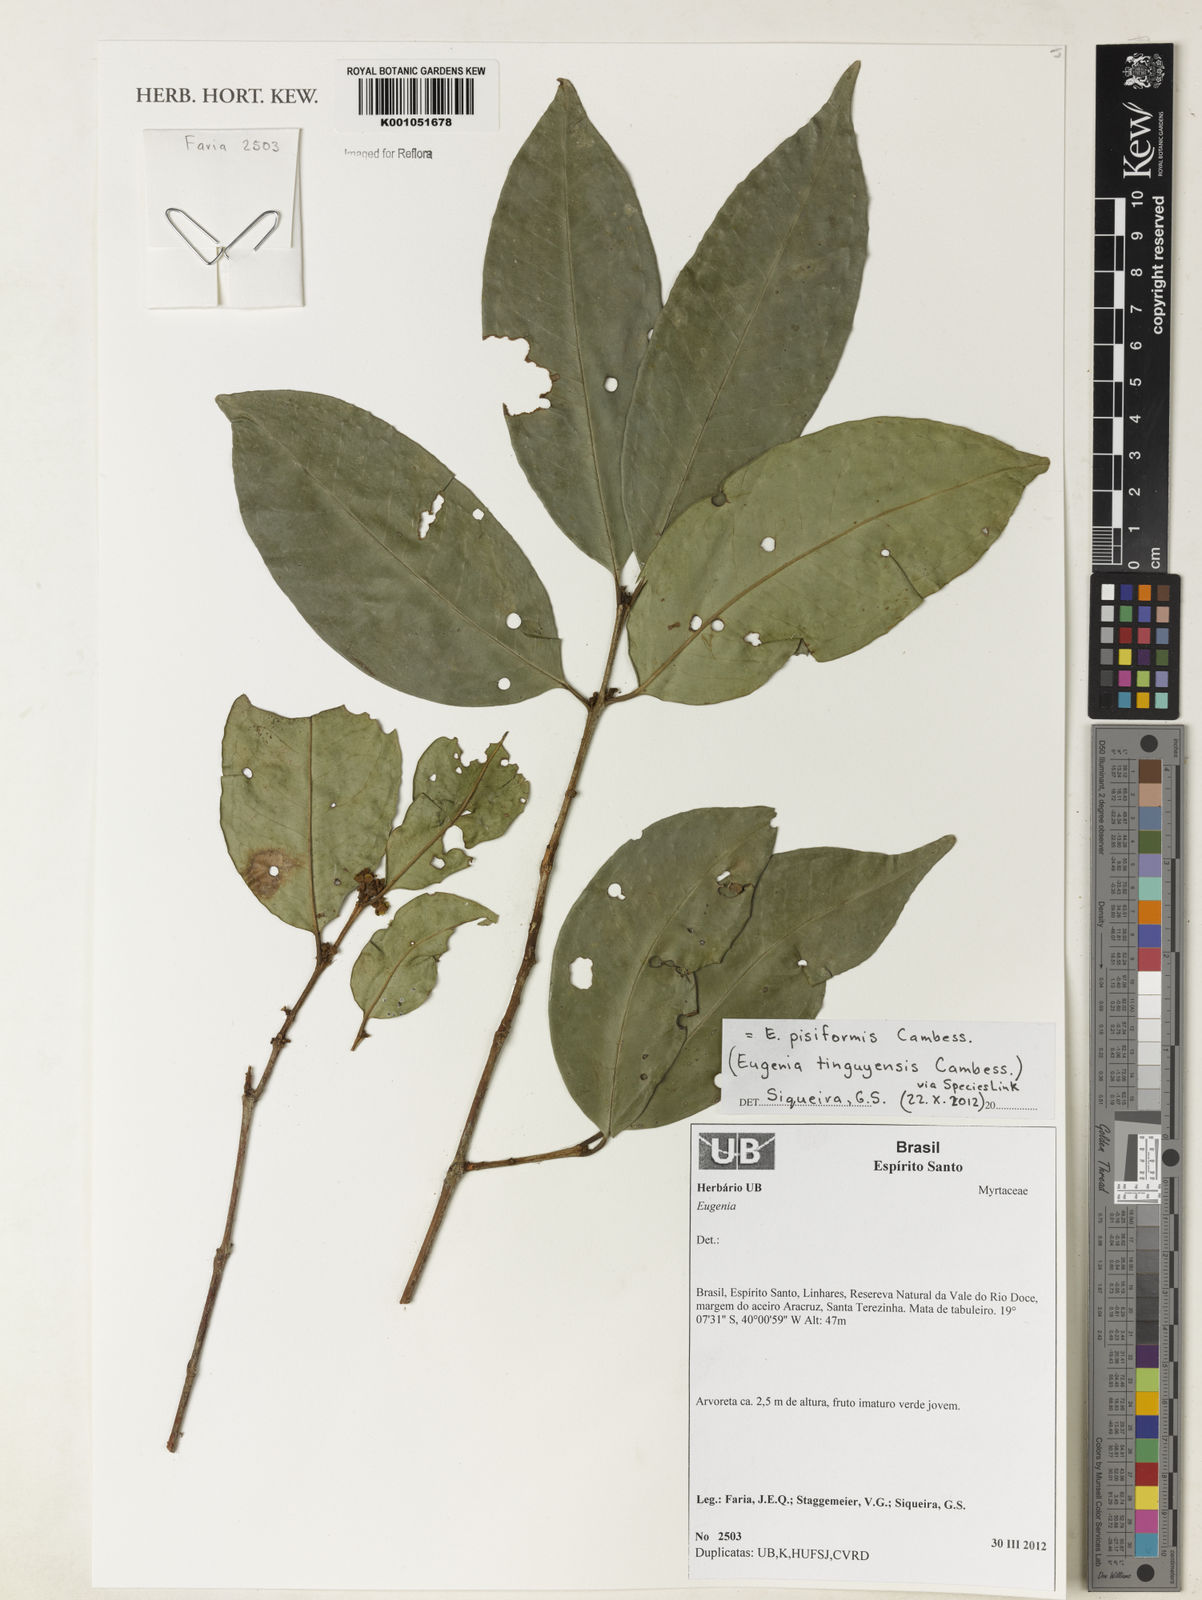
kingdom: Plantae
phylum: Tracheophyta
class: Magnoliopsida
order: Myrtales
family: Myrtaceae
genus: Eugenia
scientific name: Eugenia pisiformis
